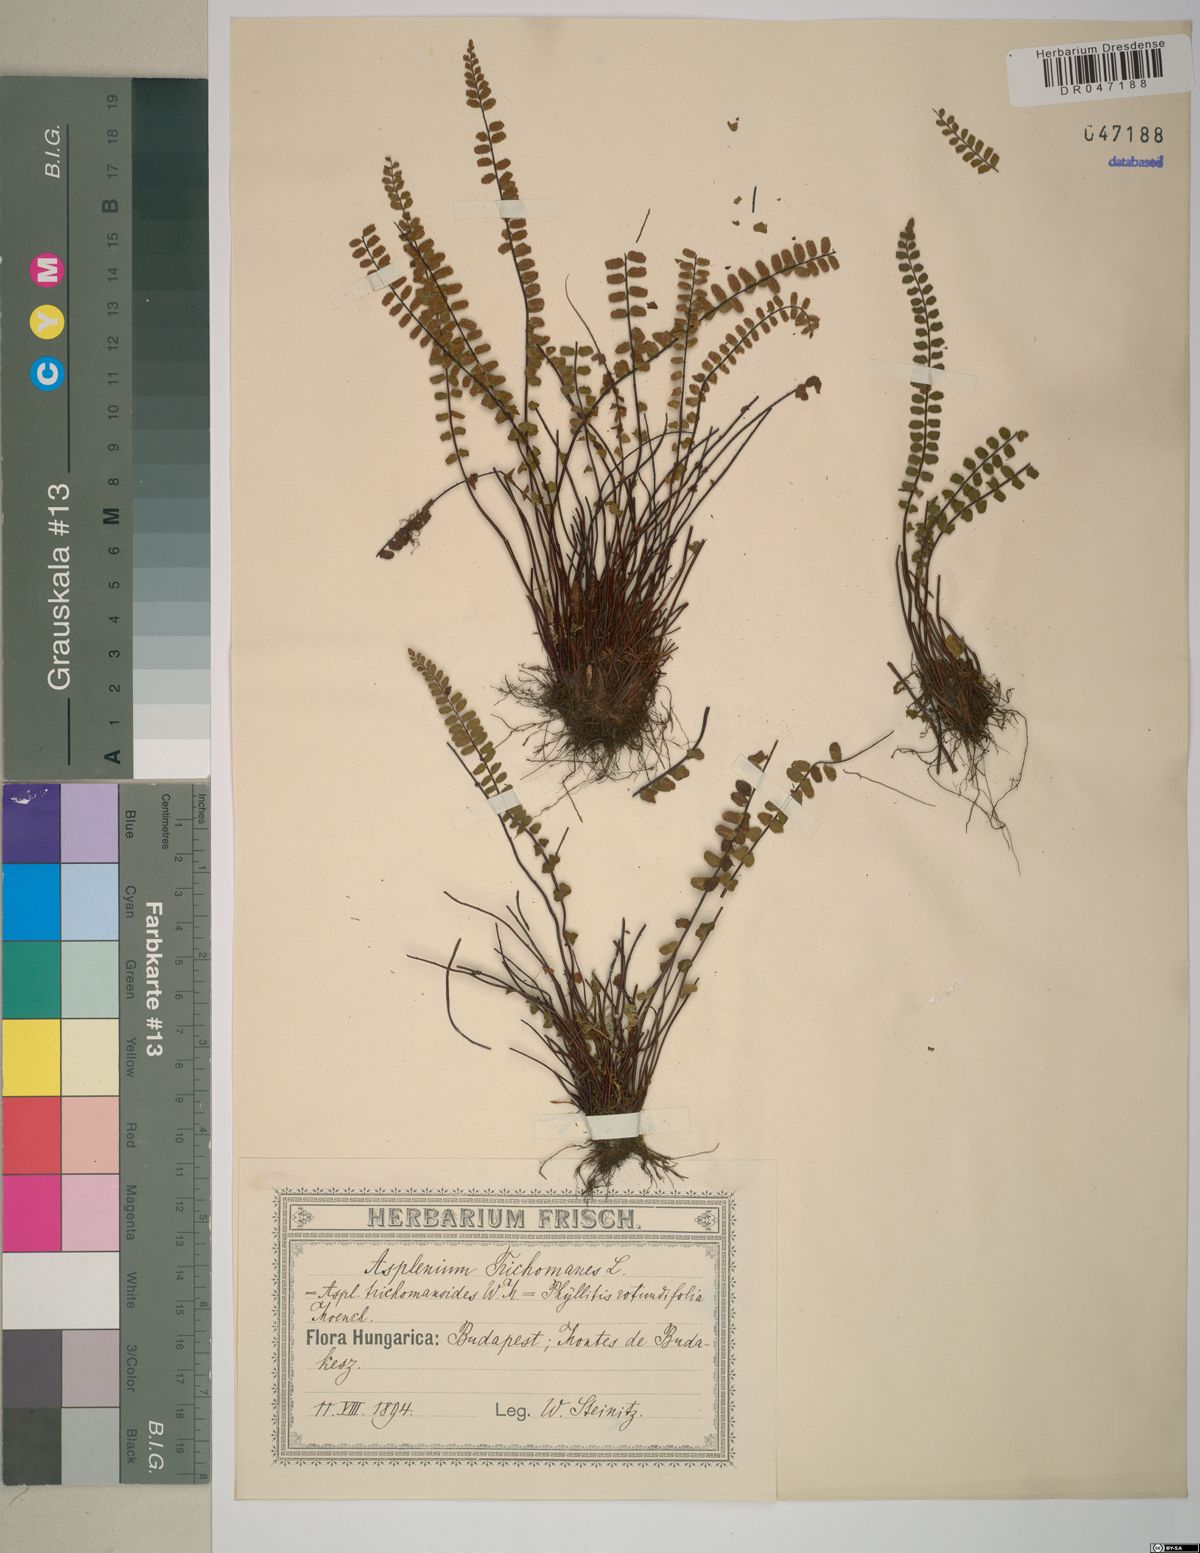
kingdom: Plantae
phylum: Tracheophyta
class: Polypodiopsida
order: Polypodiales
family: Aspleniaceae
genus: Asplenium
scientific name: Asplenium trichomanes
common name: Maidenhair spleenwort
